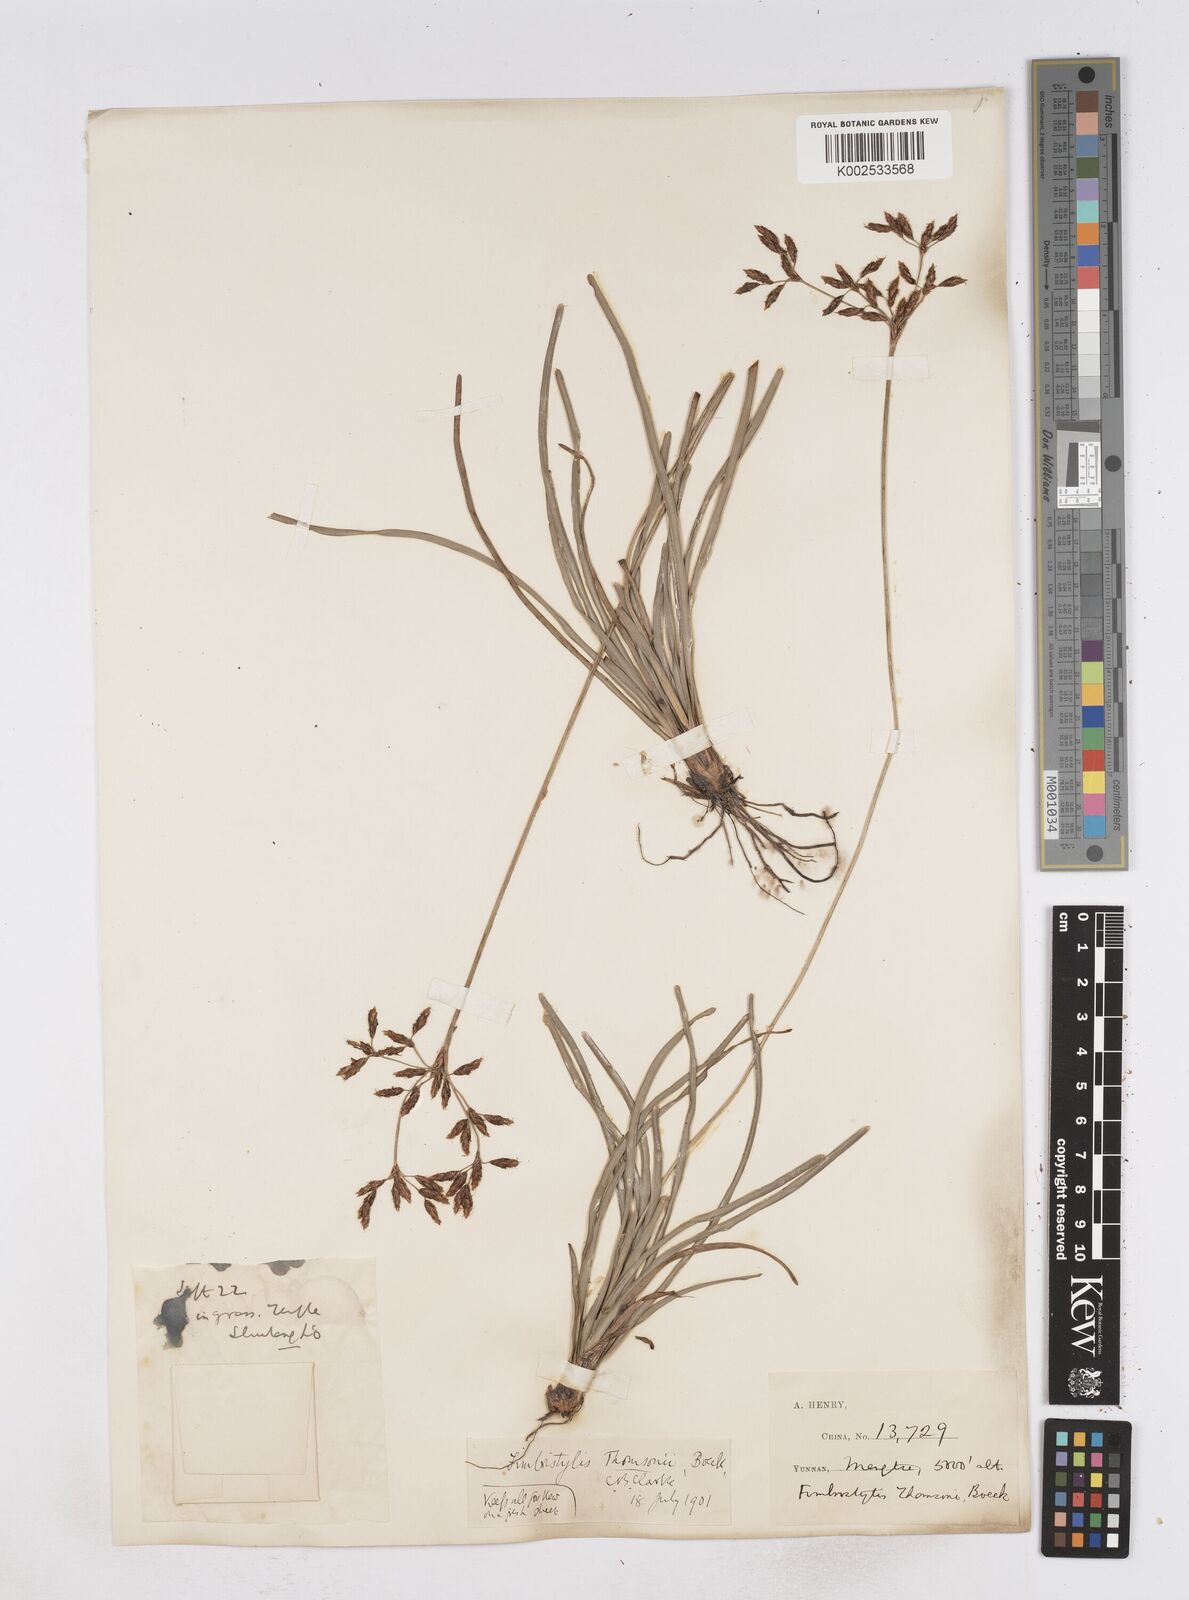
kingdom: Plantae
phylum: Tracheophyta
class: Liliopsida
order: Poales
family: Cyperaceae
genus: Fimbristylis
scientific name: Fimbristylis thomsonii
